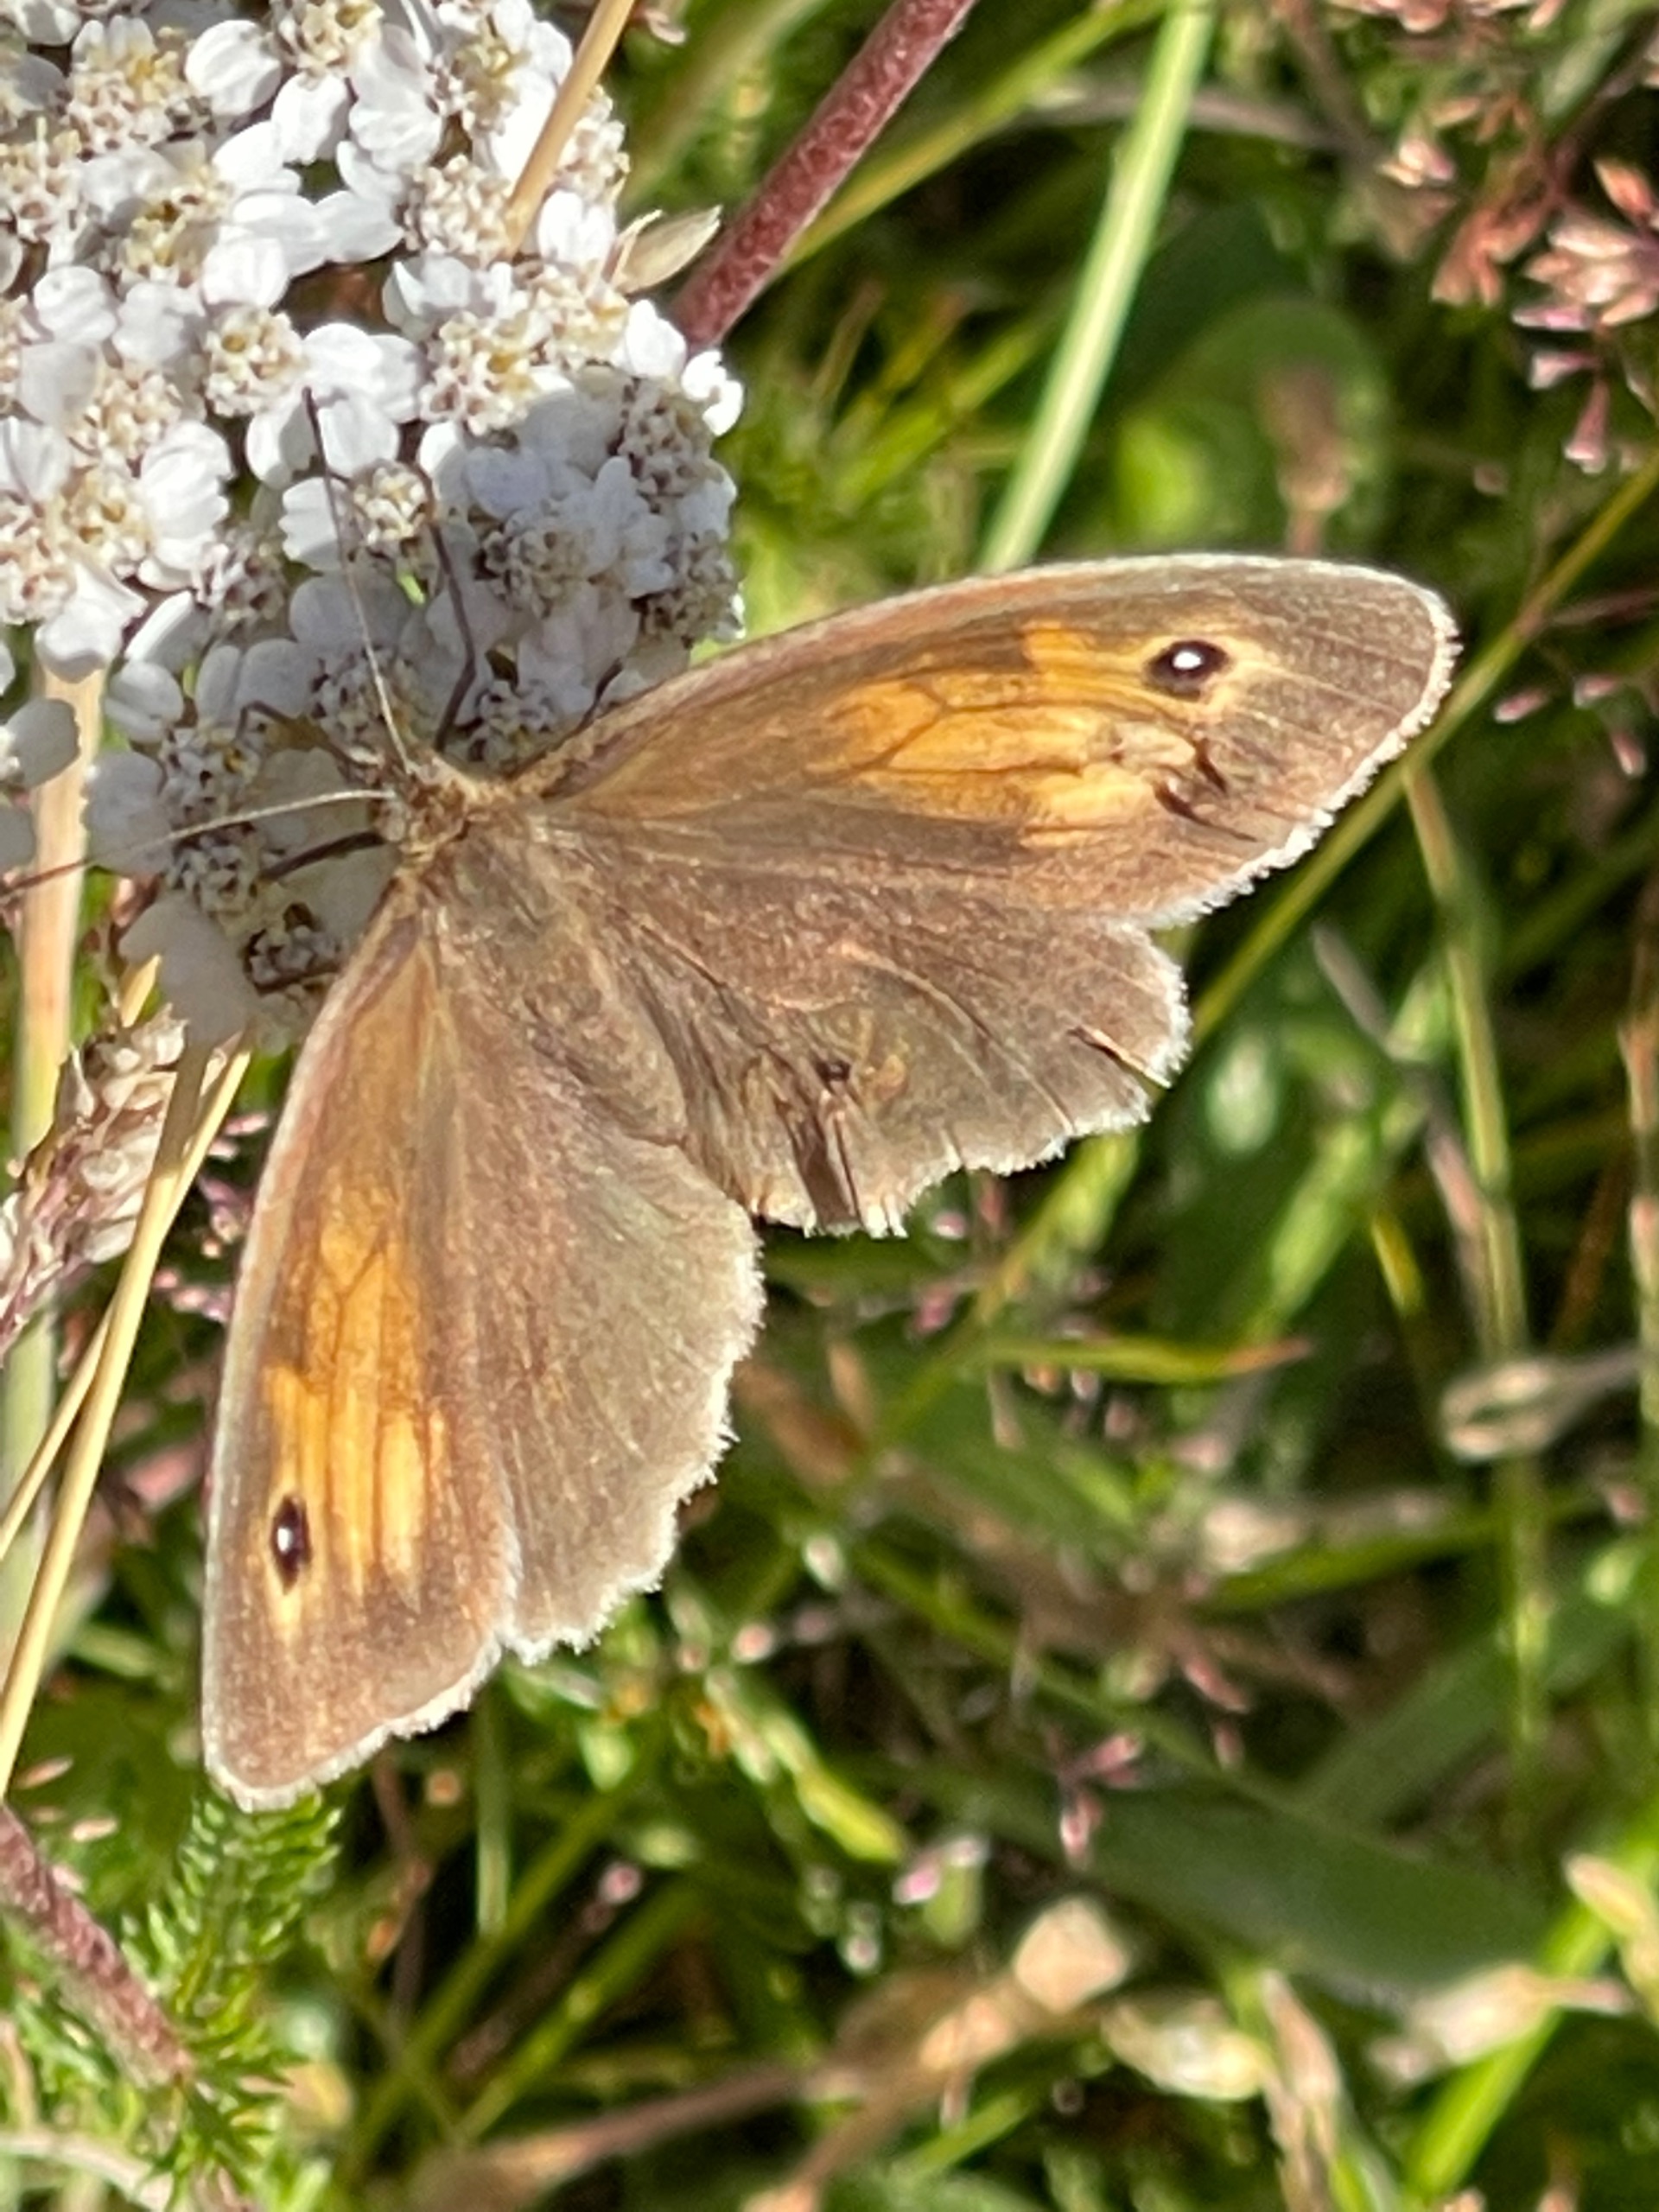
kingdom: Animalia
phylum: Arthropoda
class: Insecta
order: Lepidoptera
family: Nymphalidae
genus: Maniola
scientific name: Maniola jurtina
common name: Græsrandøje
